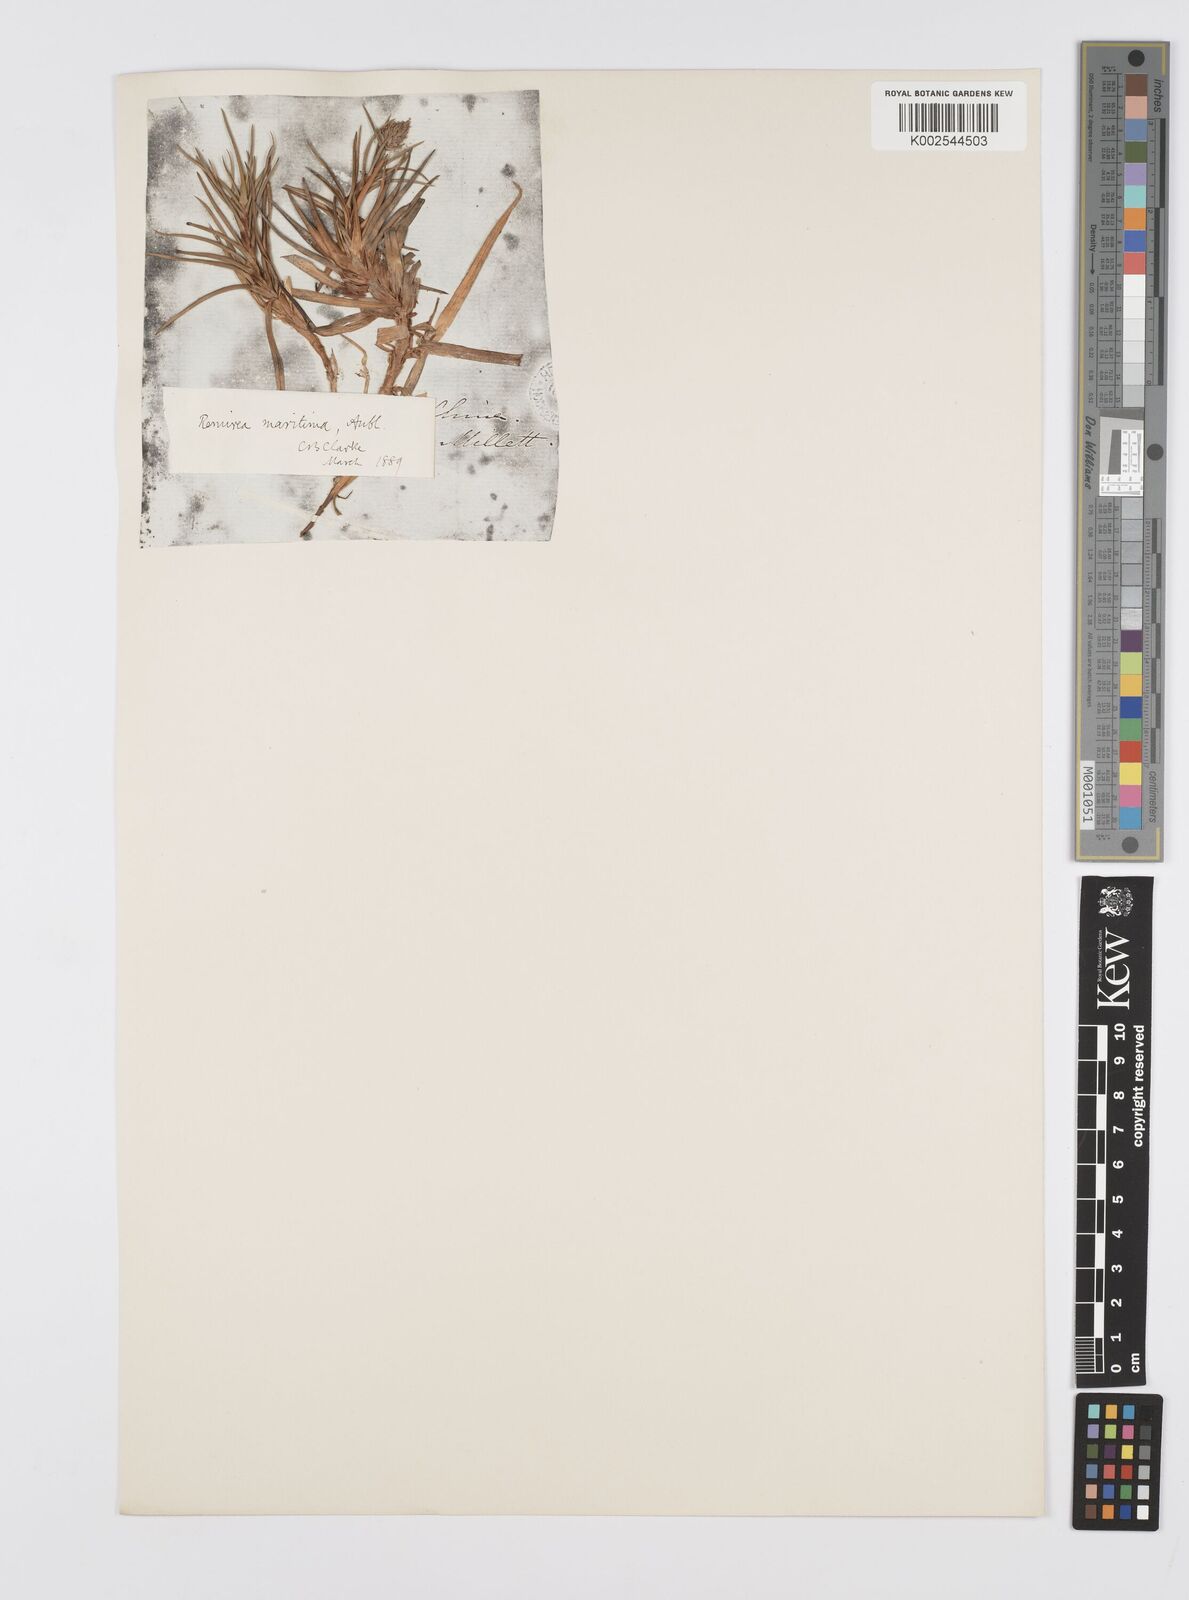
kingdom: Plantae
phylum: Tracheophyta
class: Liliopsida
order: Poales
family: Cyperaceae
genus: Cyperus
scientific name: Cyperus
